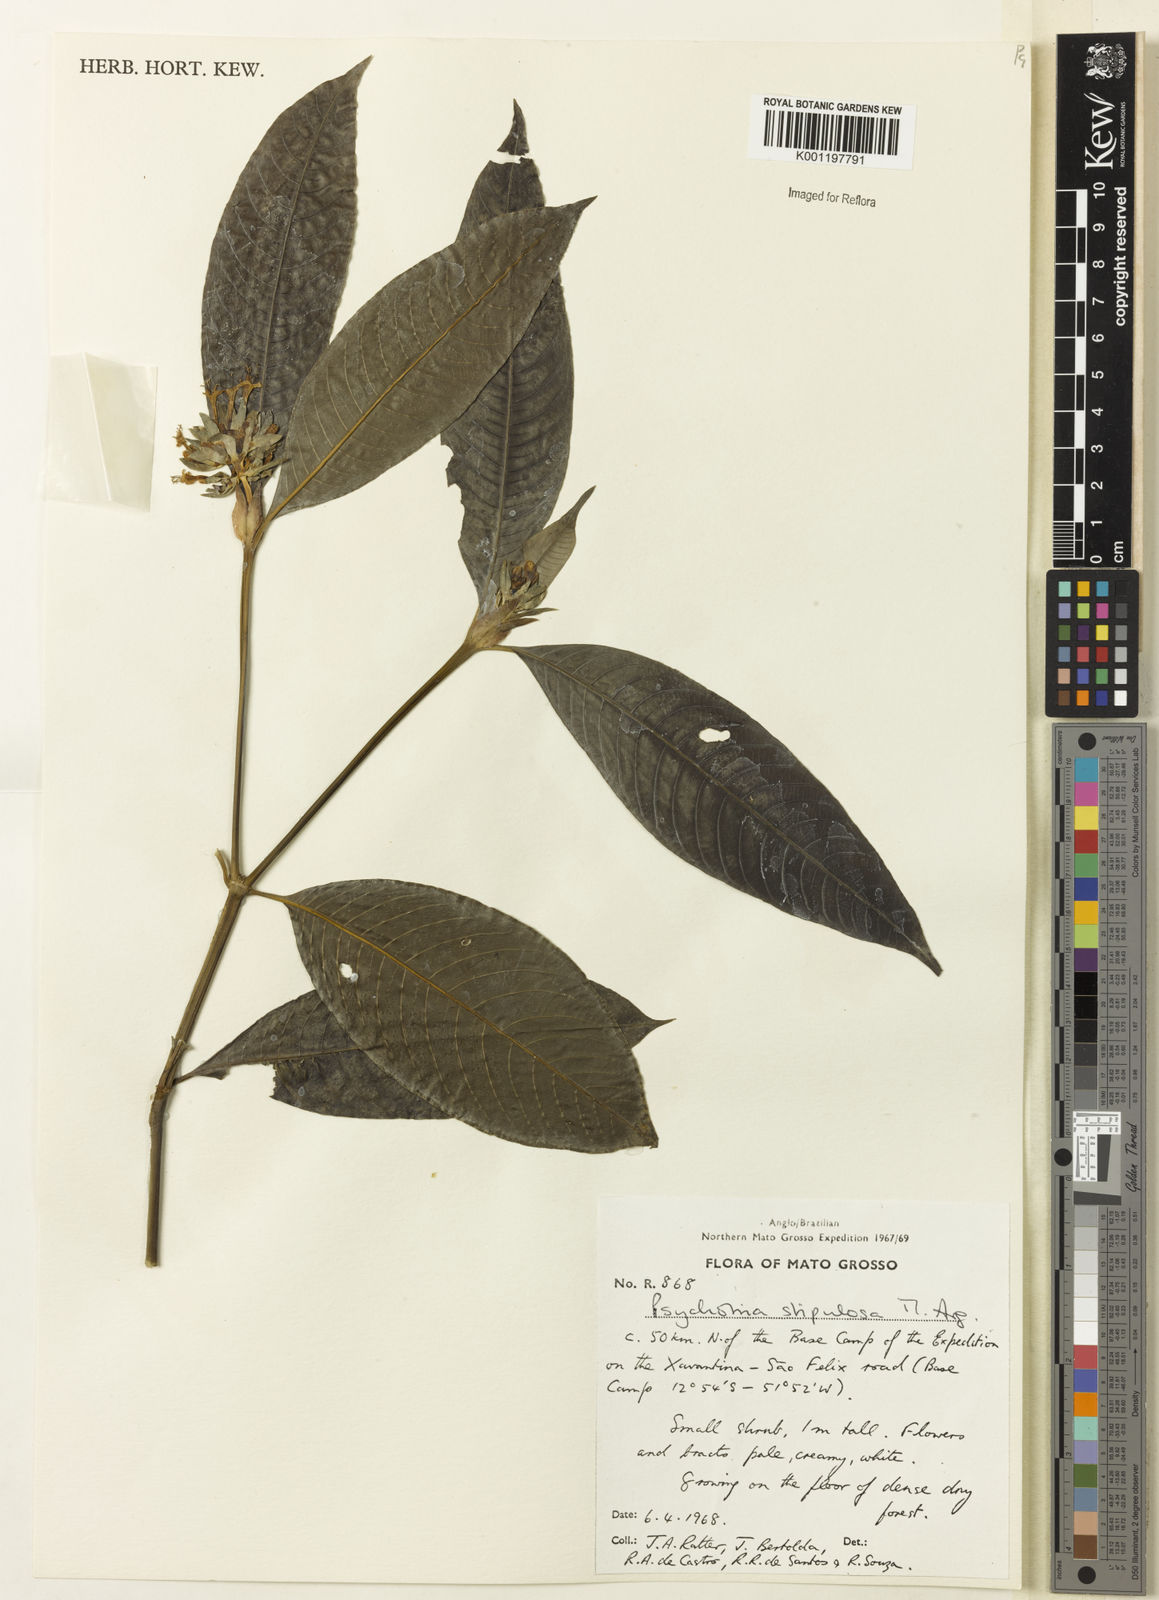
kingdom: Plantae
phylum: Tracheophyta
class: Magnoliopsida
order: Gentianales
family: Rubiaceae
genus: Psychotria
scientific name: Psychotria
